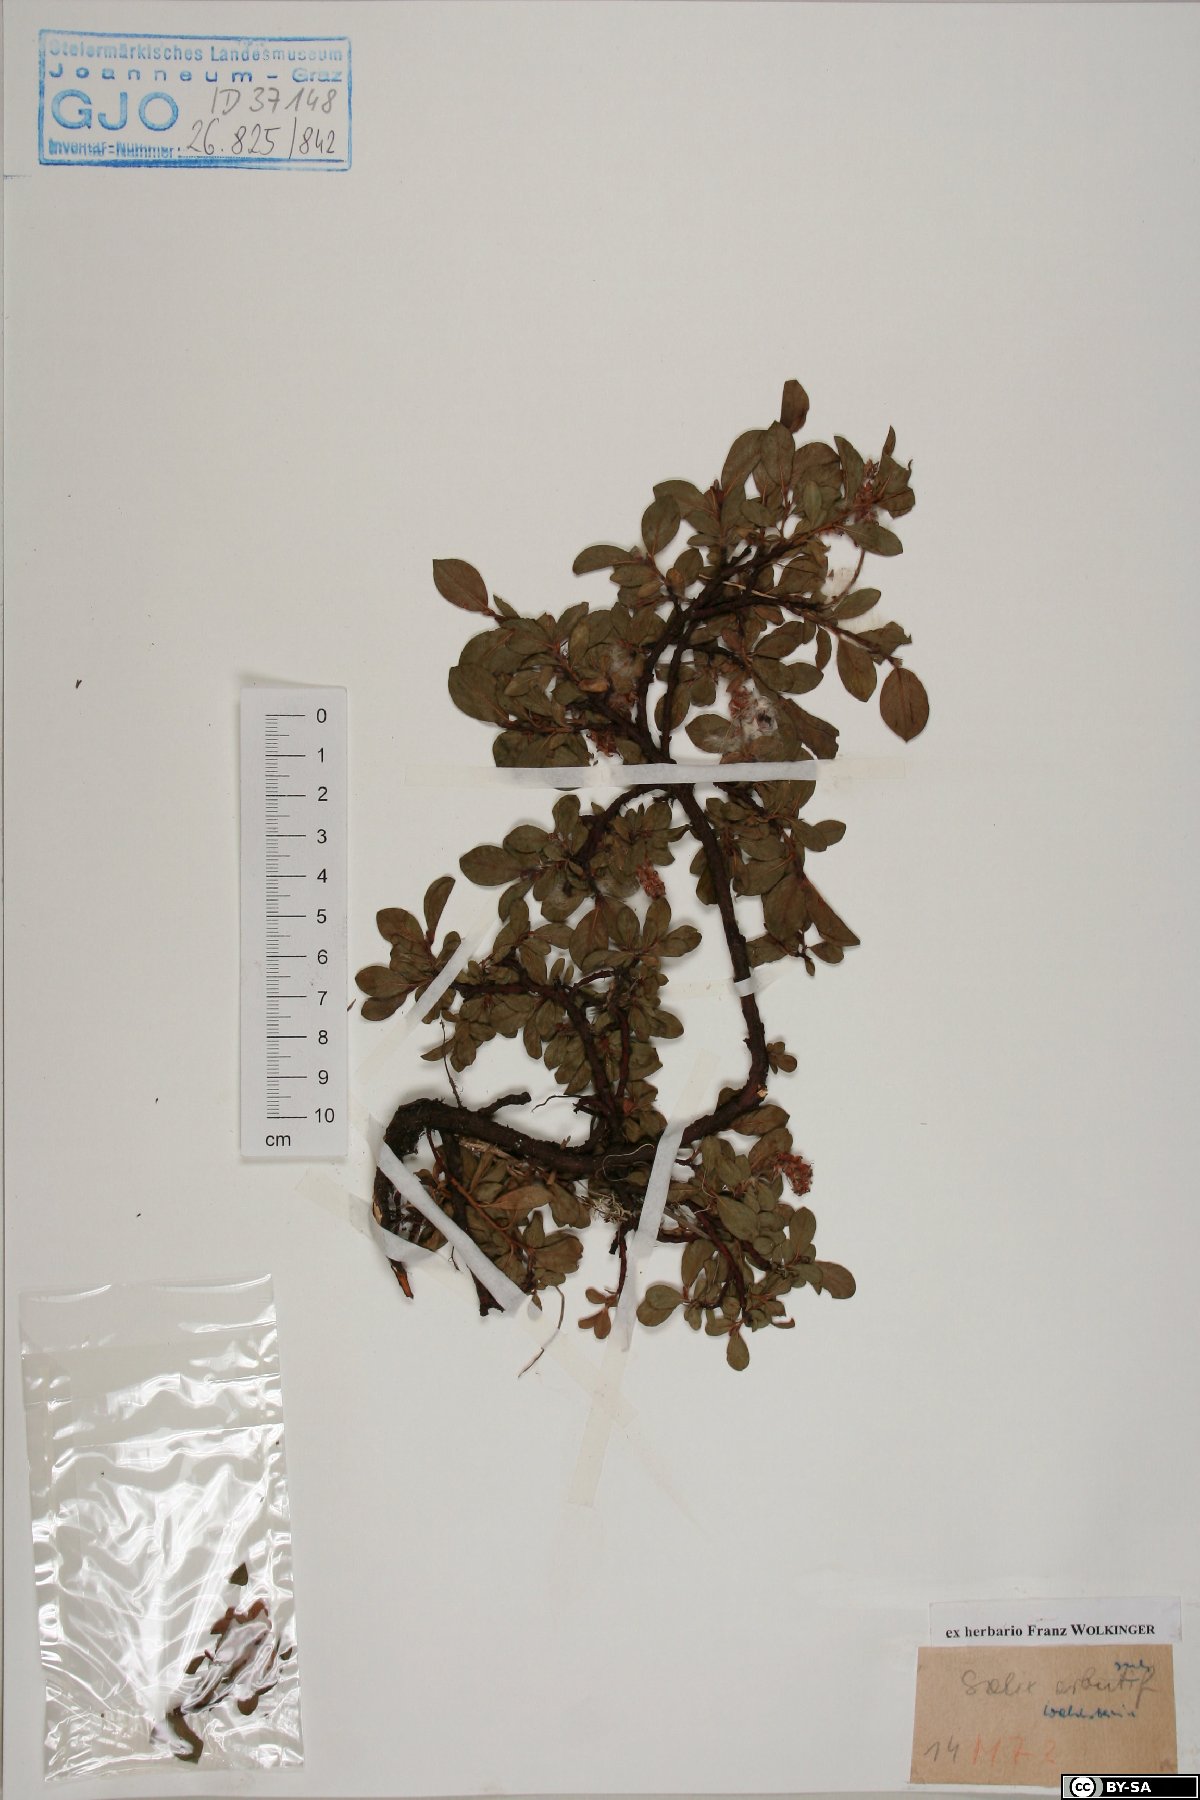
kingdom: Plantae
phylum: Tracheophyta
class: Magnoliopsida
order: Malpighiales
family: Salicaceae
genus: Salix
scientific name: Salix waldsteiniana
